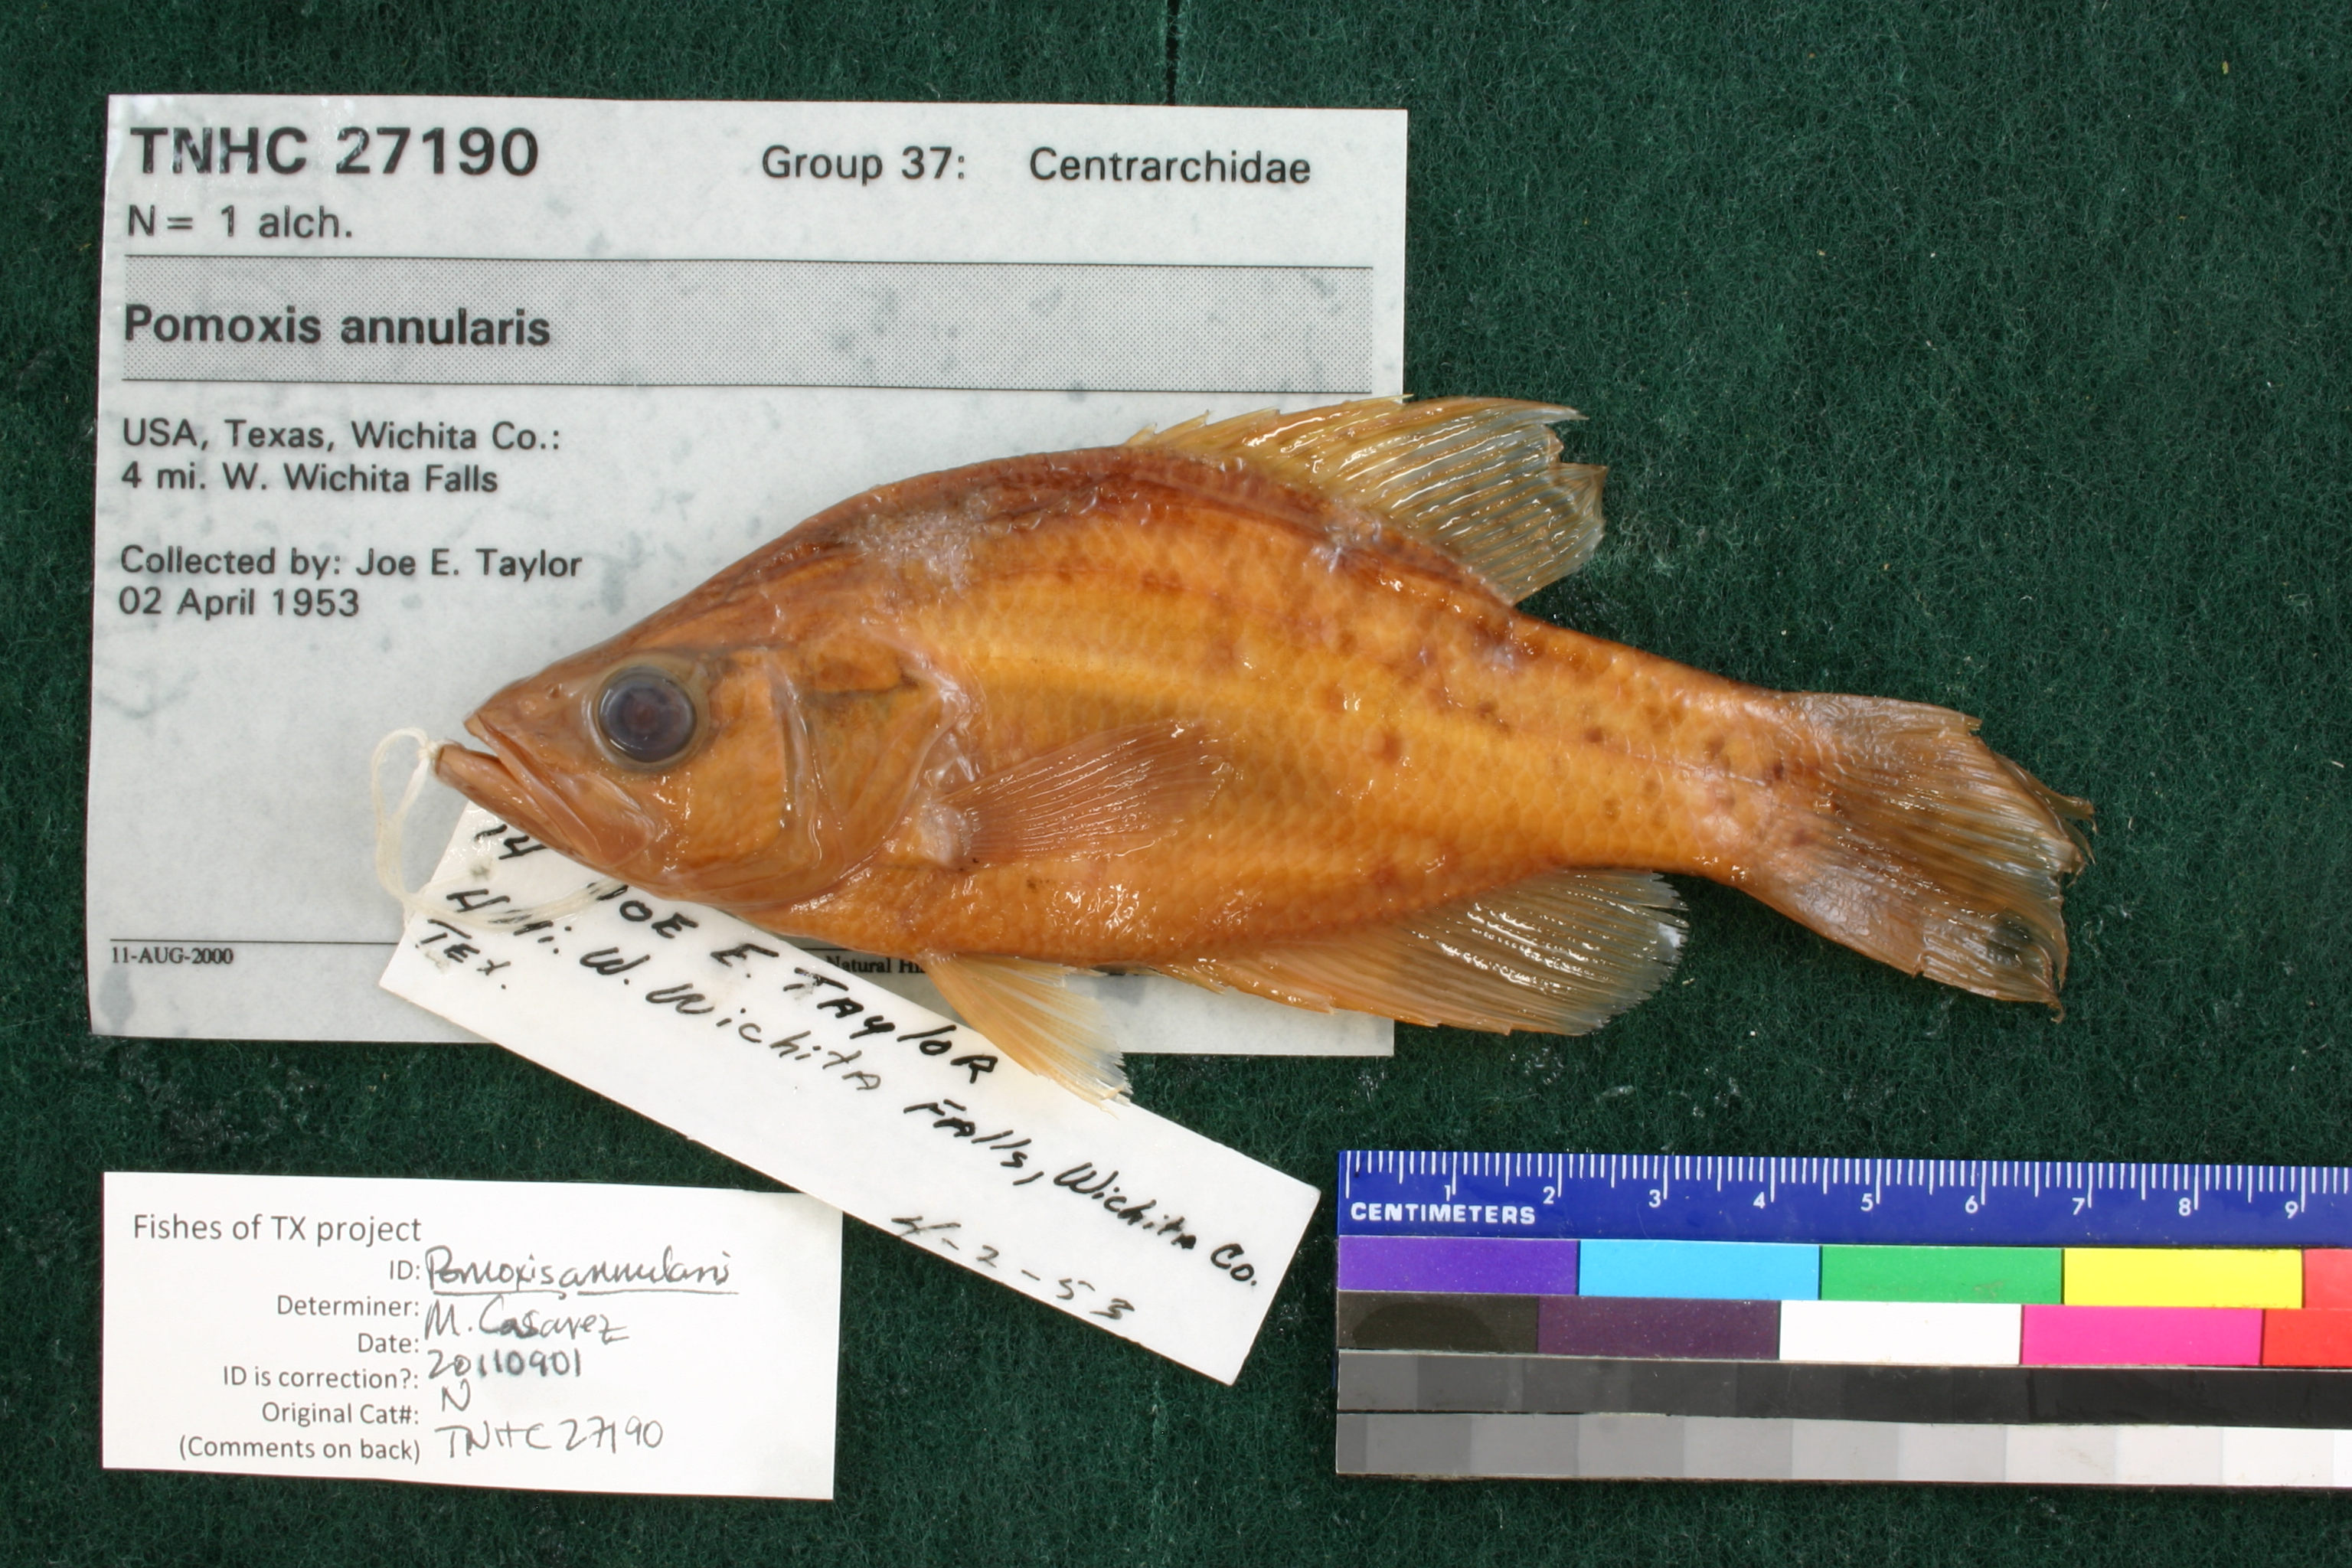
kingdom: Animalia
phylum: Chordata
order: Perciformes
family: Centrarchidae
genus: Pomoxis
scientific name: Pomoxis annularis
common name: White crappie
